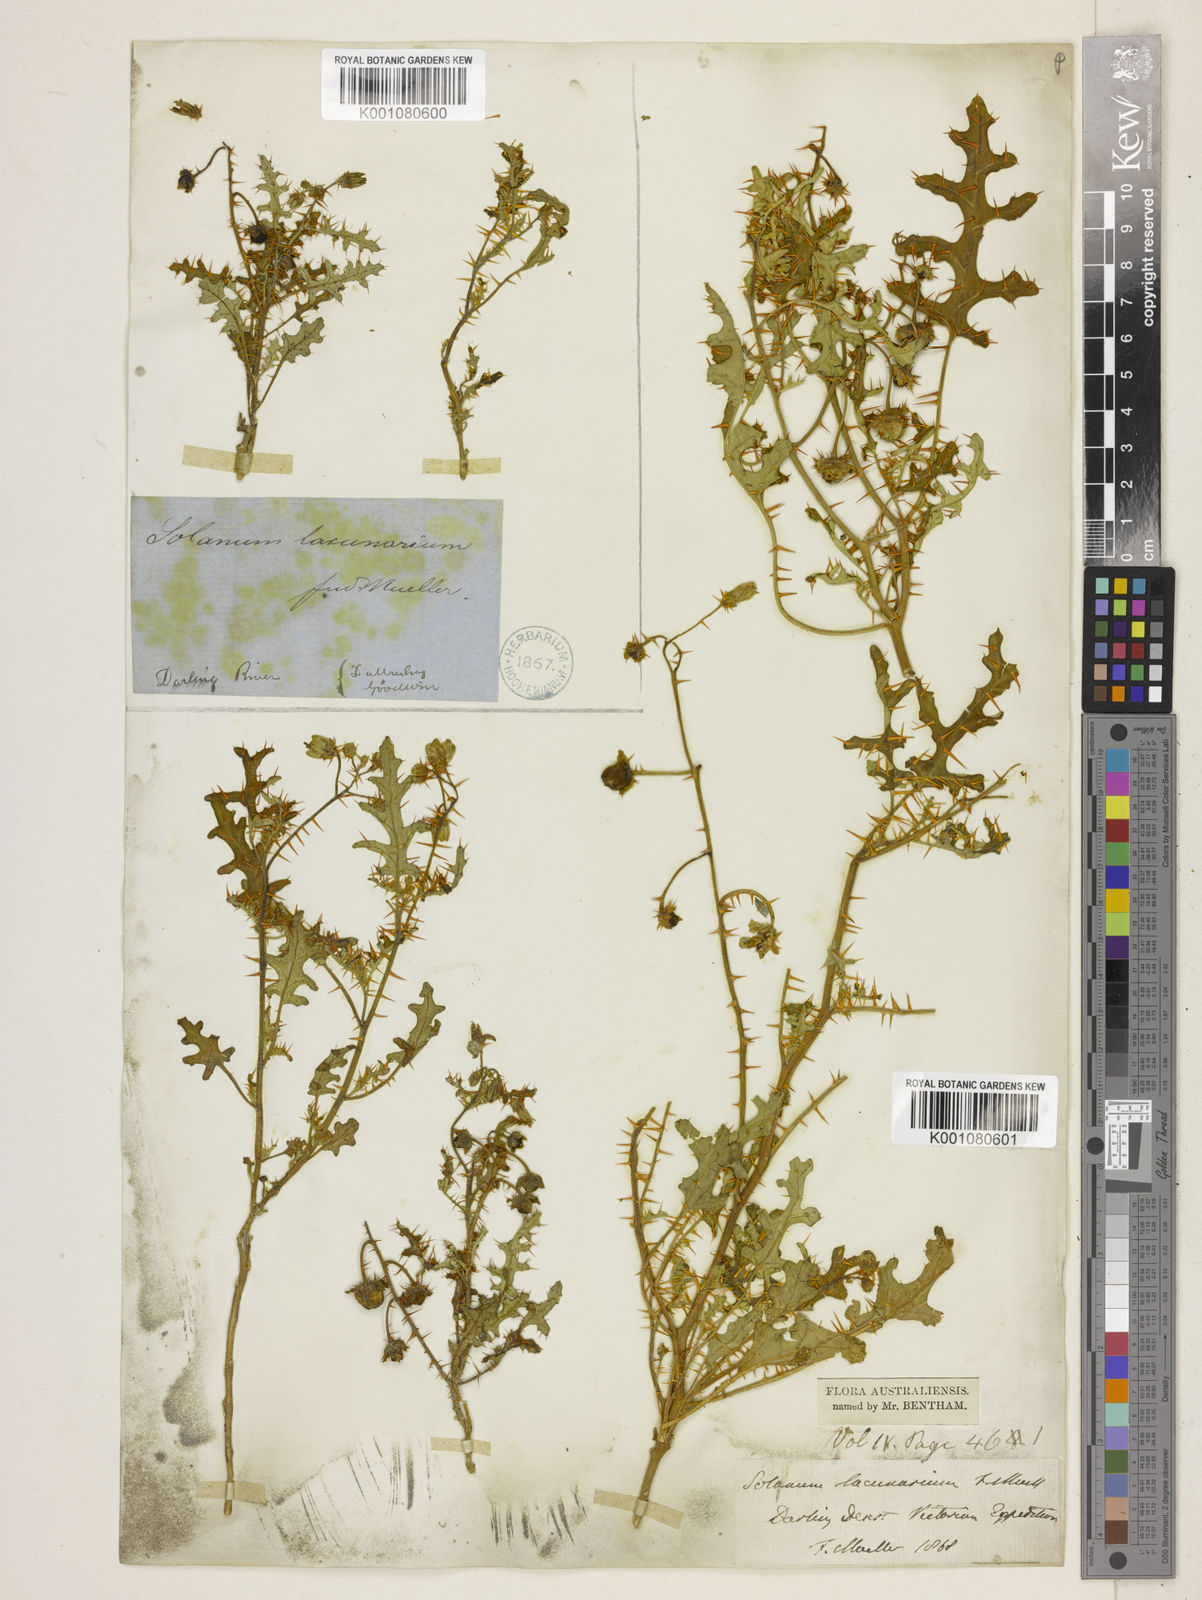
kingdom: Plantae
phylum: Tracheophyta
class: Magnoliopsida
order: Solanales
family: Solanaceae
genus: Solanum
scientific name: Solanum lacunarium
